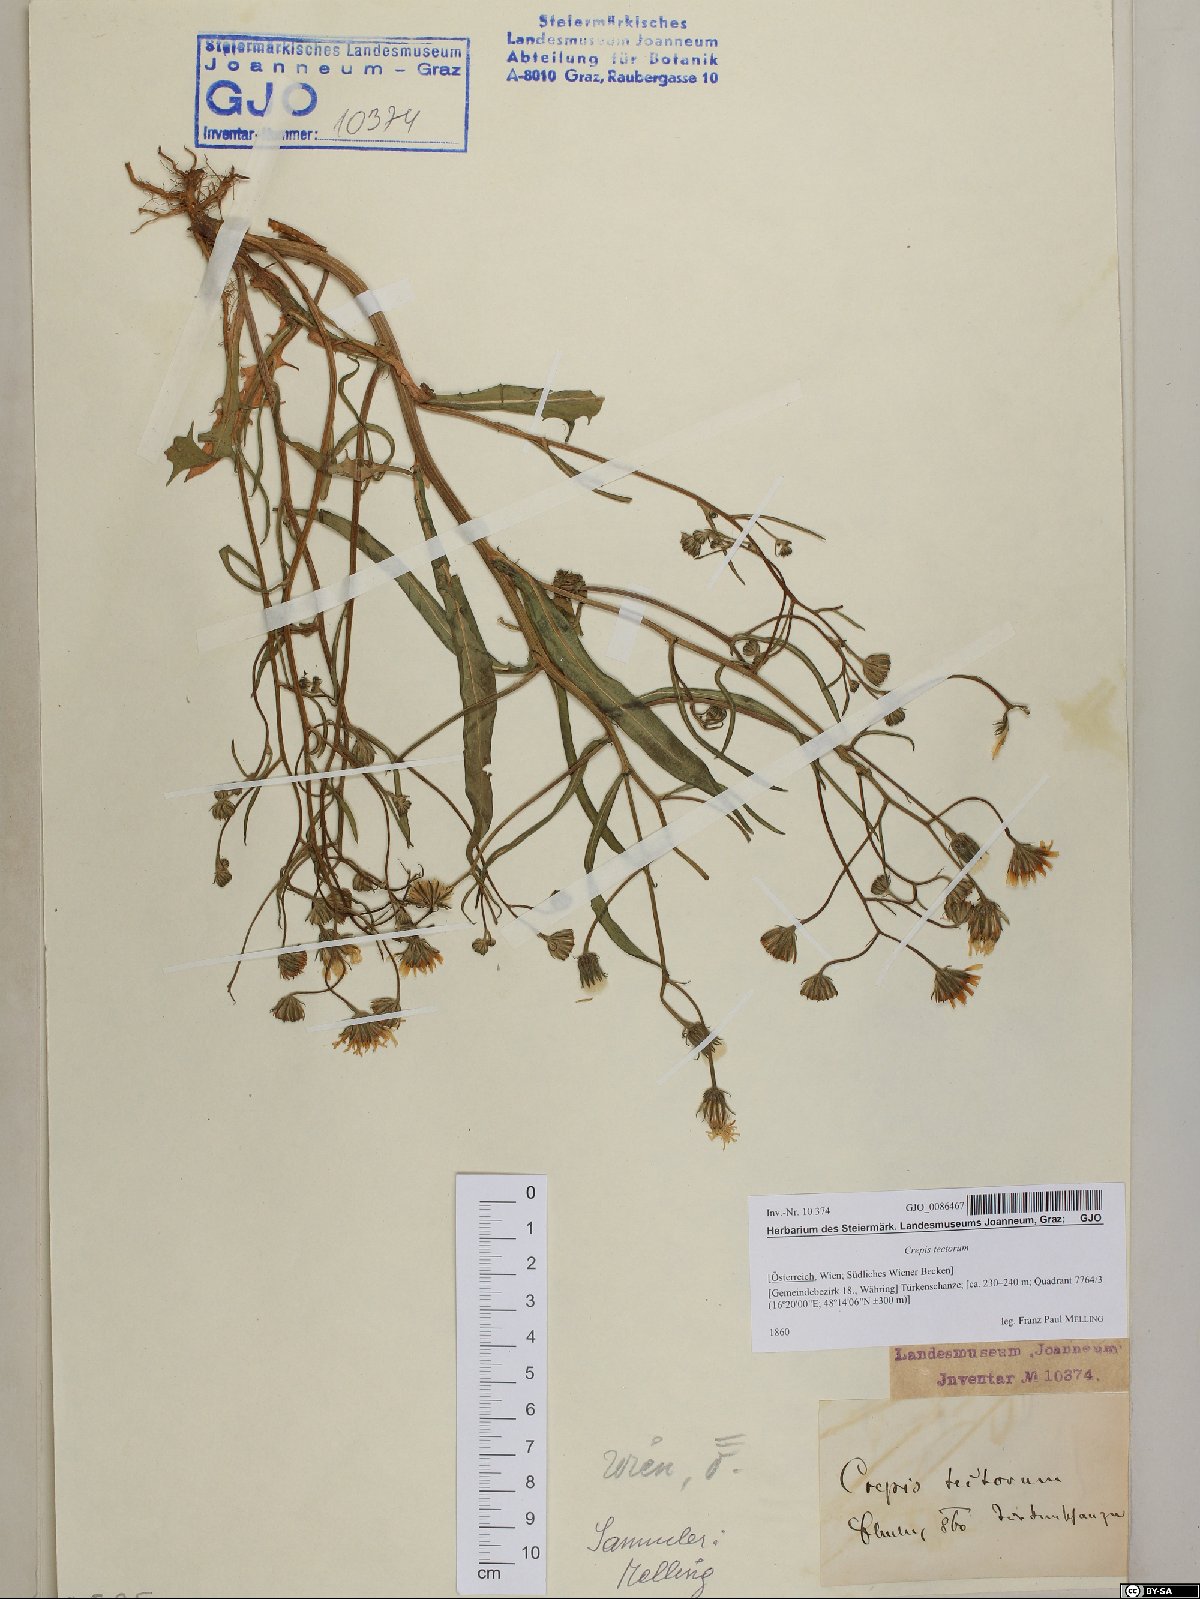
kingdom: Plantae
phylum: Tracheophyta
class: Magnoliopsida
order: Asterales
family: Asteraceae
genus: Crepis
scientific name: Crepis tectorum
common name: Narrow-leaved hawk's-beard
